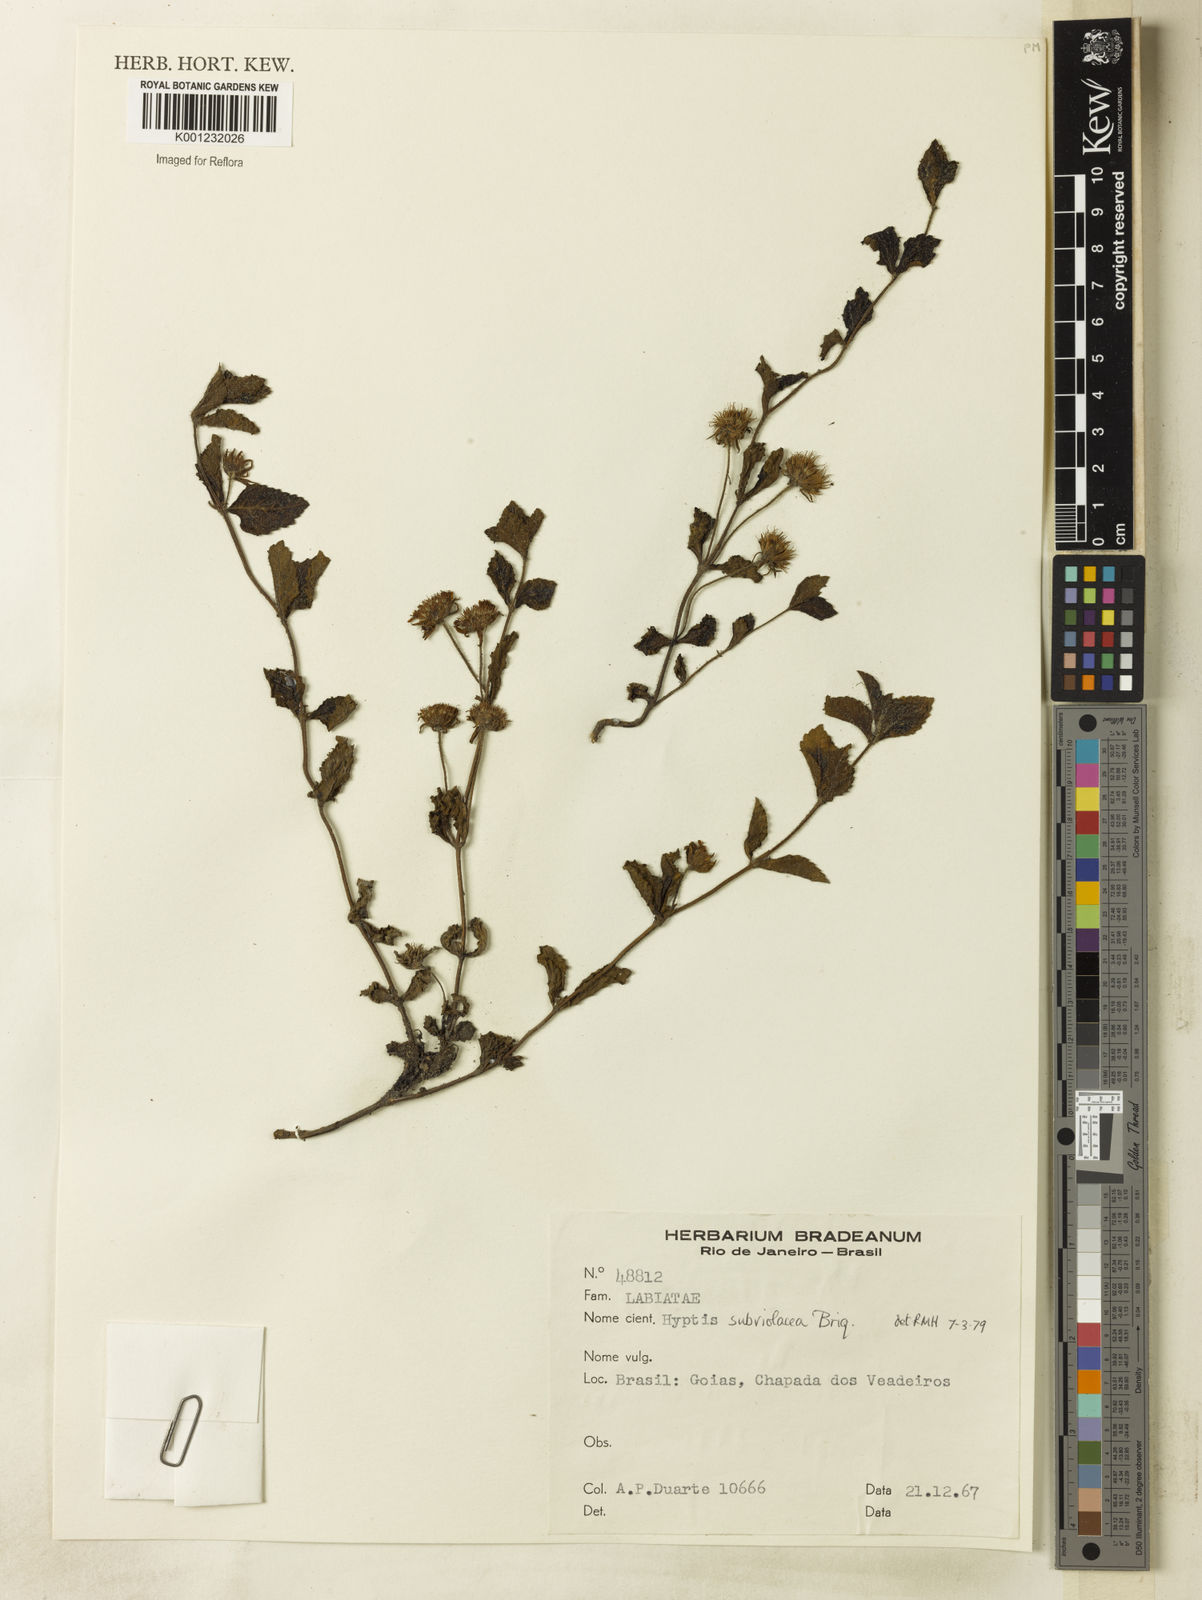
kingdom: Plantae
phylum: Tracheophyta
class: Magnoliopsida
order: Lamiales
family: Lamiaceae
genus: Hyptis
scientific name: Hyptis subviolacea
